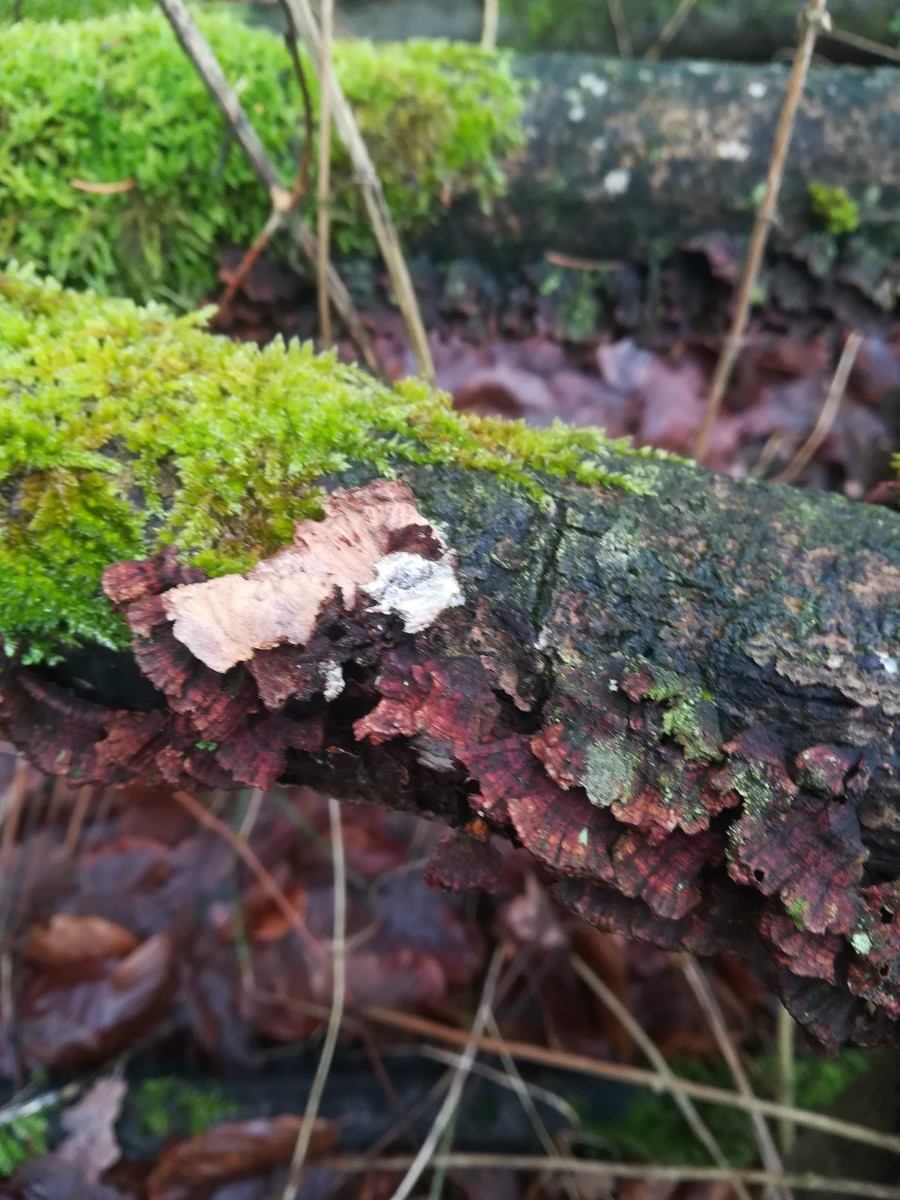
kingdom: Fungi
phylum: Basidiomycota
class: Agaricomycetes
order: Hymenochaetales
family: Hymenochaetaceae
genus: Hydnoporia
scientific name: Hydnoporia tabacina
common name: tobaksbrun ruslædersvamp
